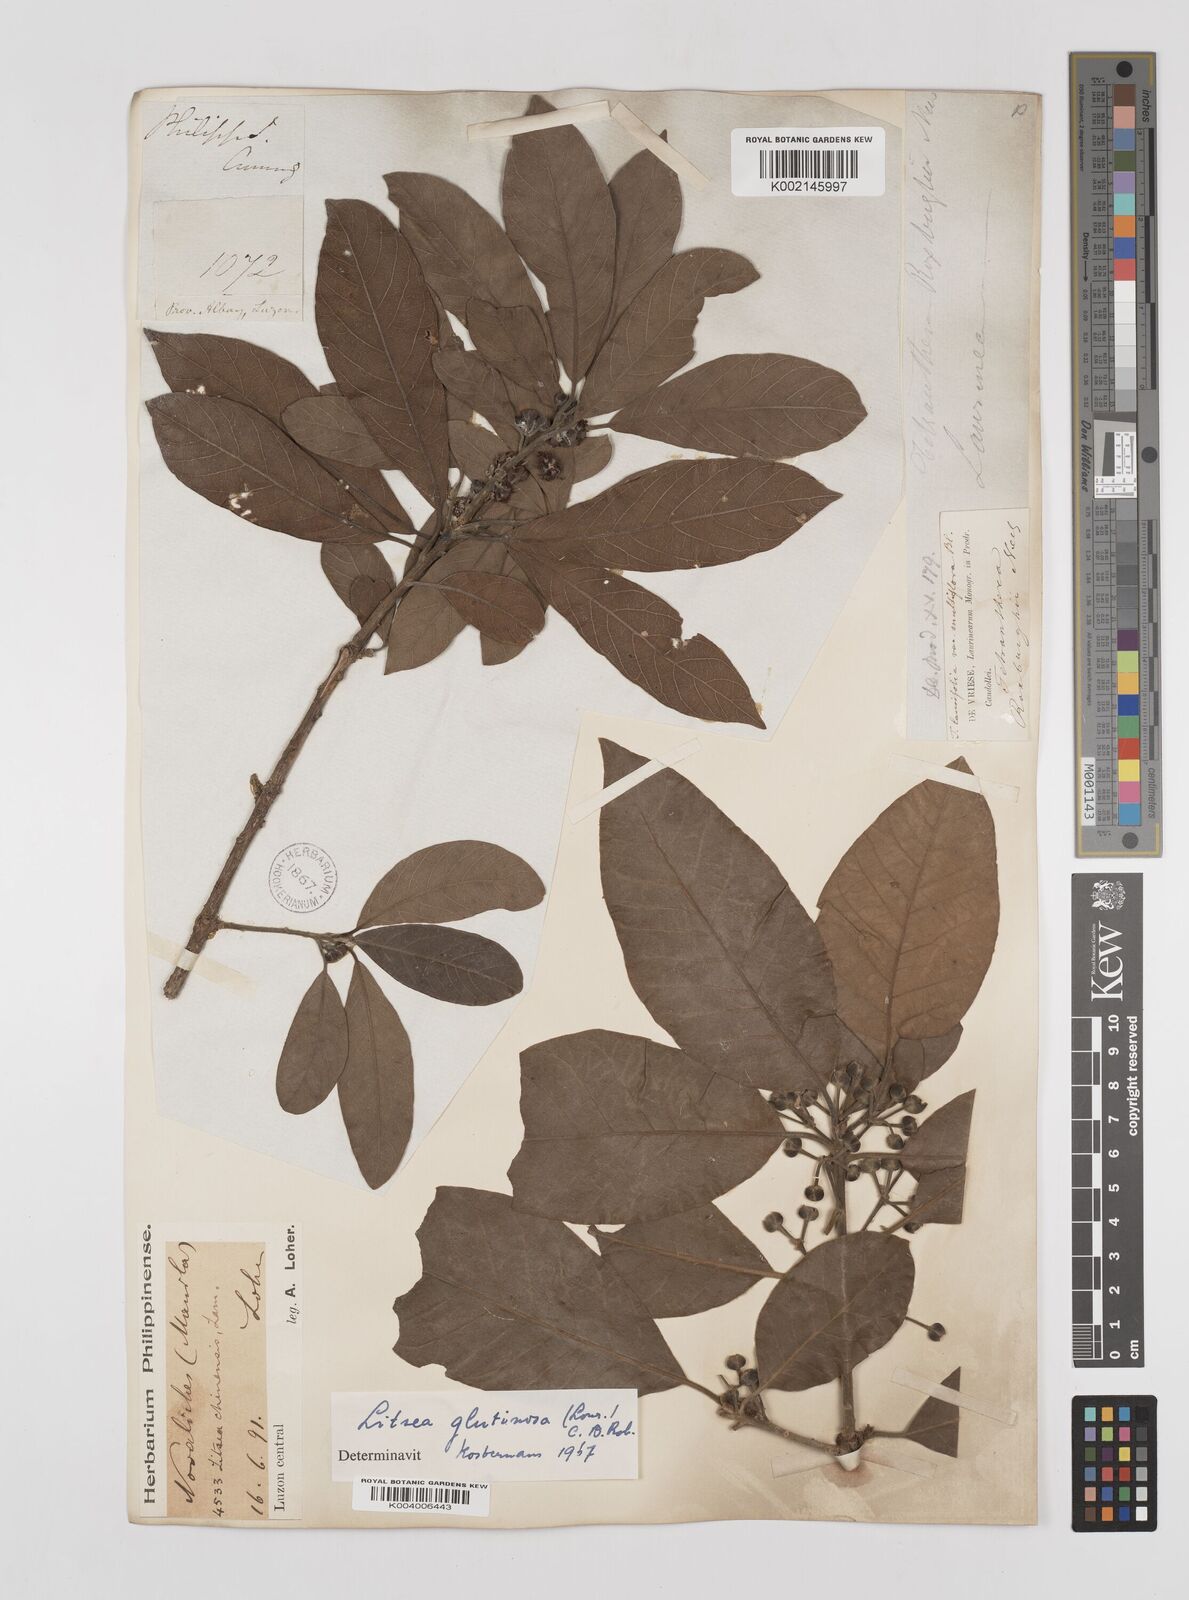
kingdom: Plantae
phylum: Tracheophyta
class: Magnoliopsida
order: Laurales
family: Lauraceae
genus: Litsea
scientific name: Litsea
